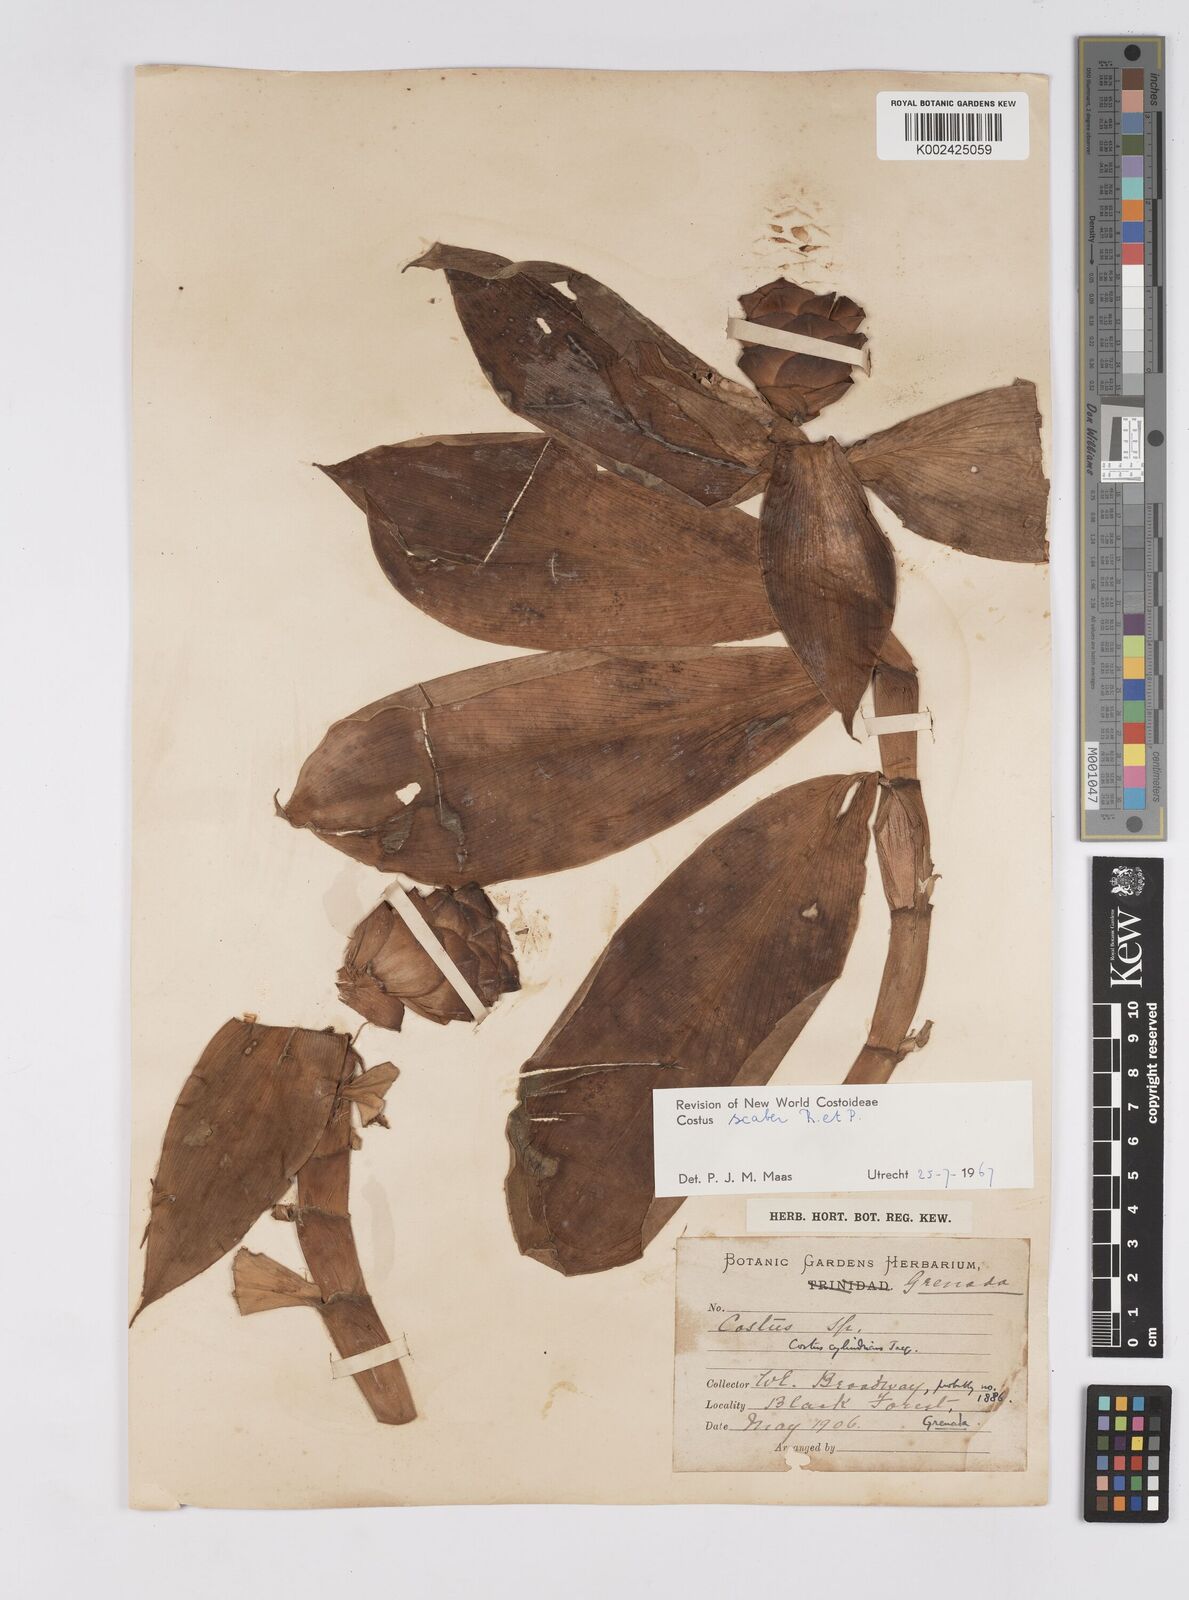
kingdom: Plantae
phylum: Tracheophyta
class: Liliopsida
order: Zingiberales
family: Costaceae
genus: Costus
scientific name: Costus scaber
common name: Spiral head ginger
